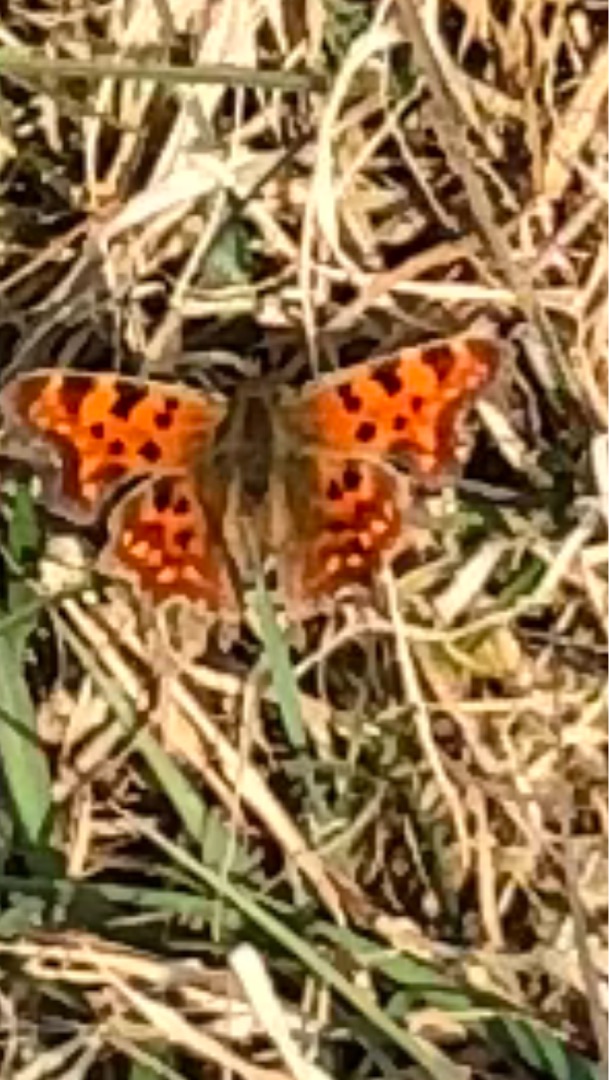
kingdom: Animalia
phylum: Arthropoda
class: Insecta
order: Lepidoptera
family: Nymphalidae
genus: Polygonia
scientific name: Polygonia c-album
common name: Det hvide C
